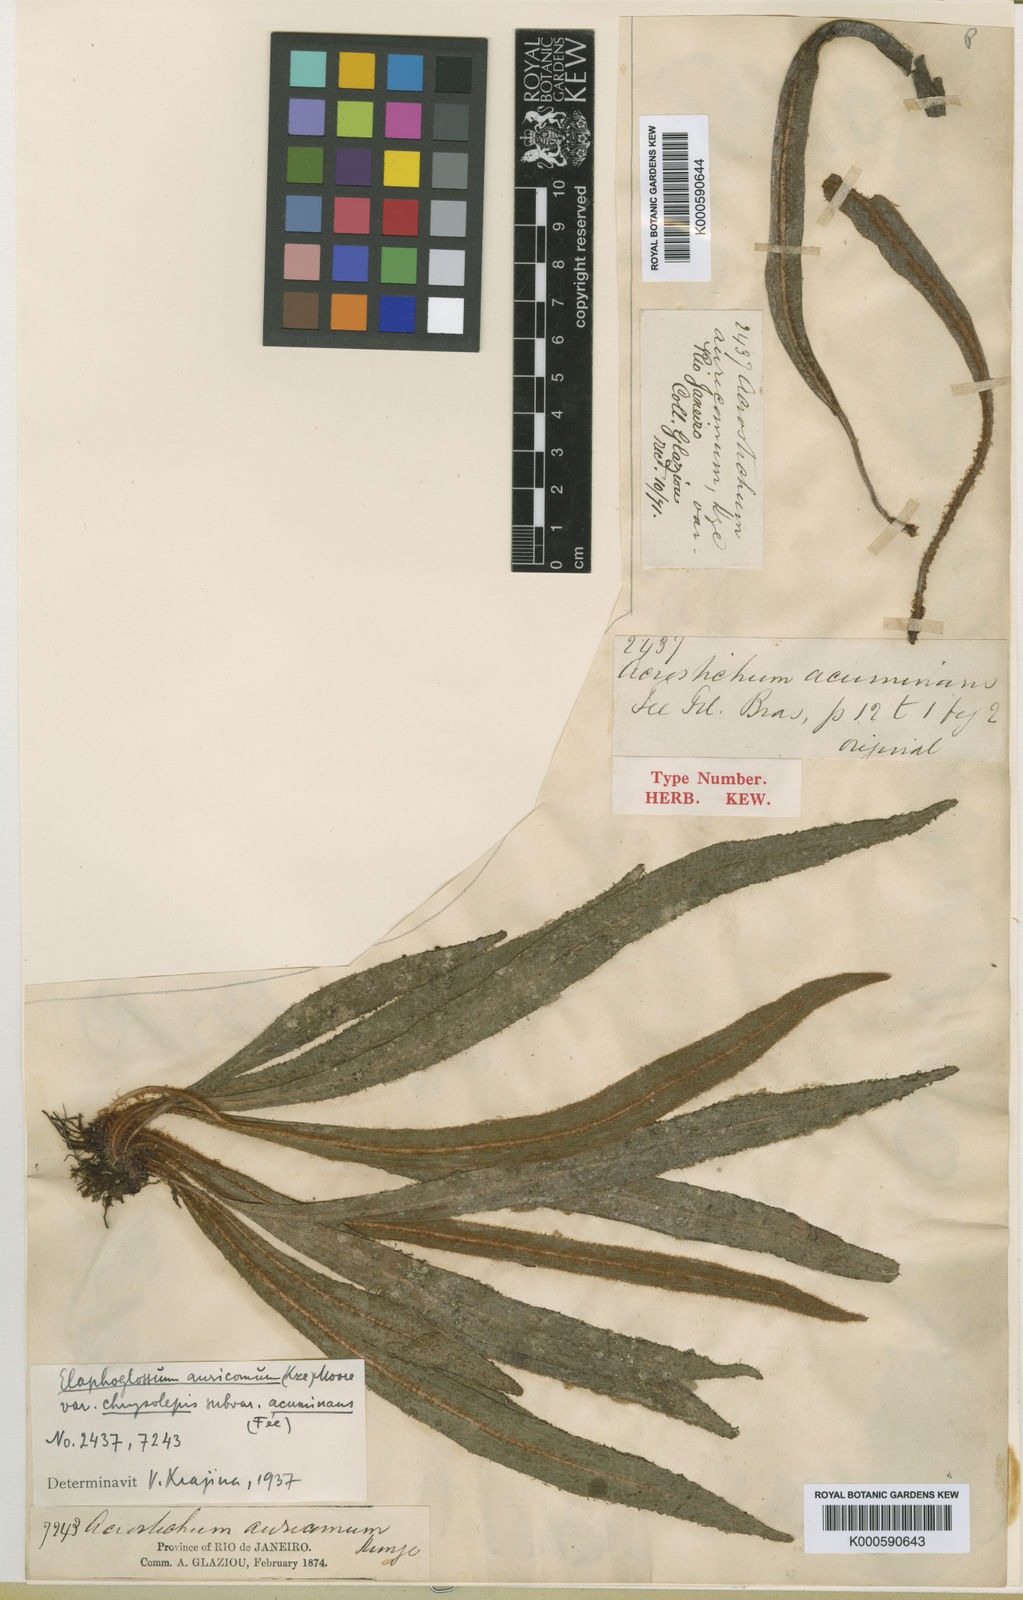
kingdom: Plantae
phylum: Tracheophyta
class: Polypodiopsida
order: Polypodiales
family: Dryopteridaceae
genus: Elaphoglossum
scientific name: Elaphoglossum auricomum
